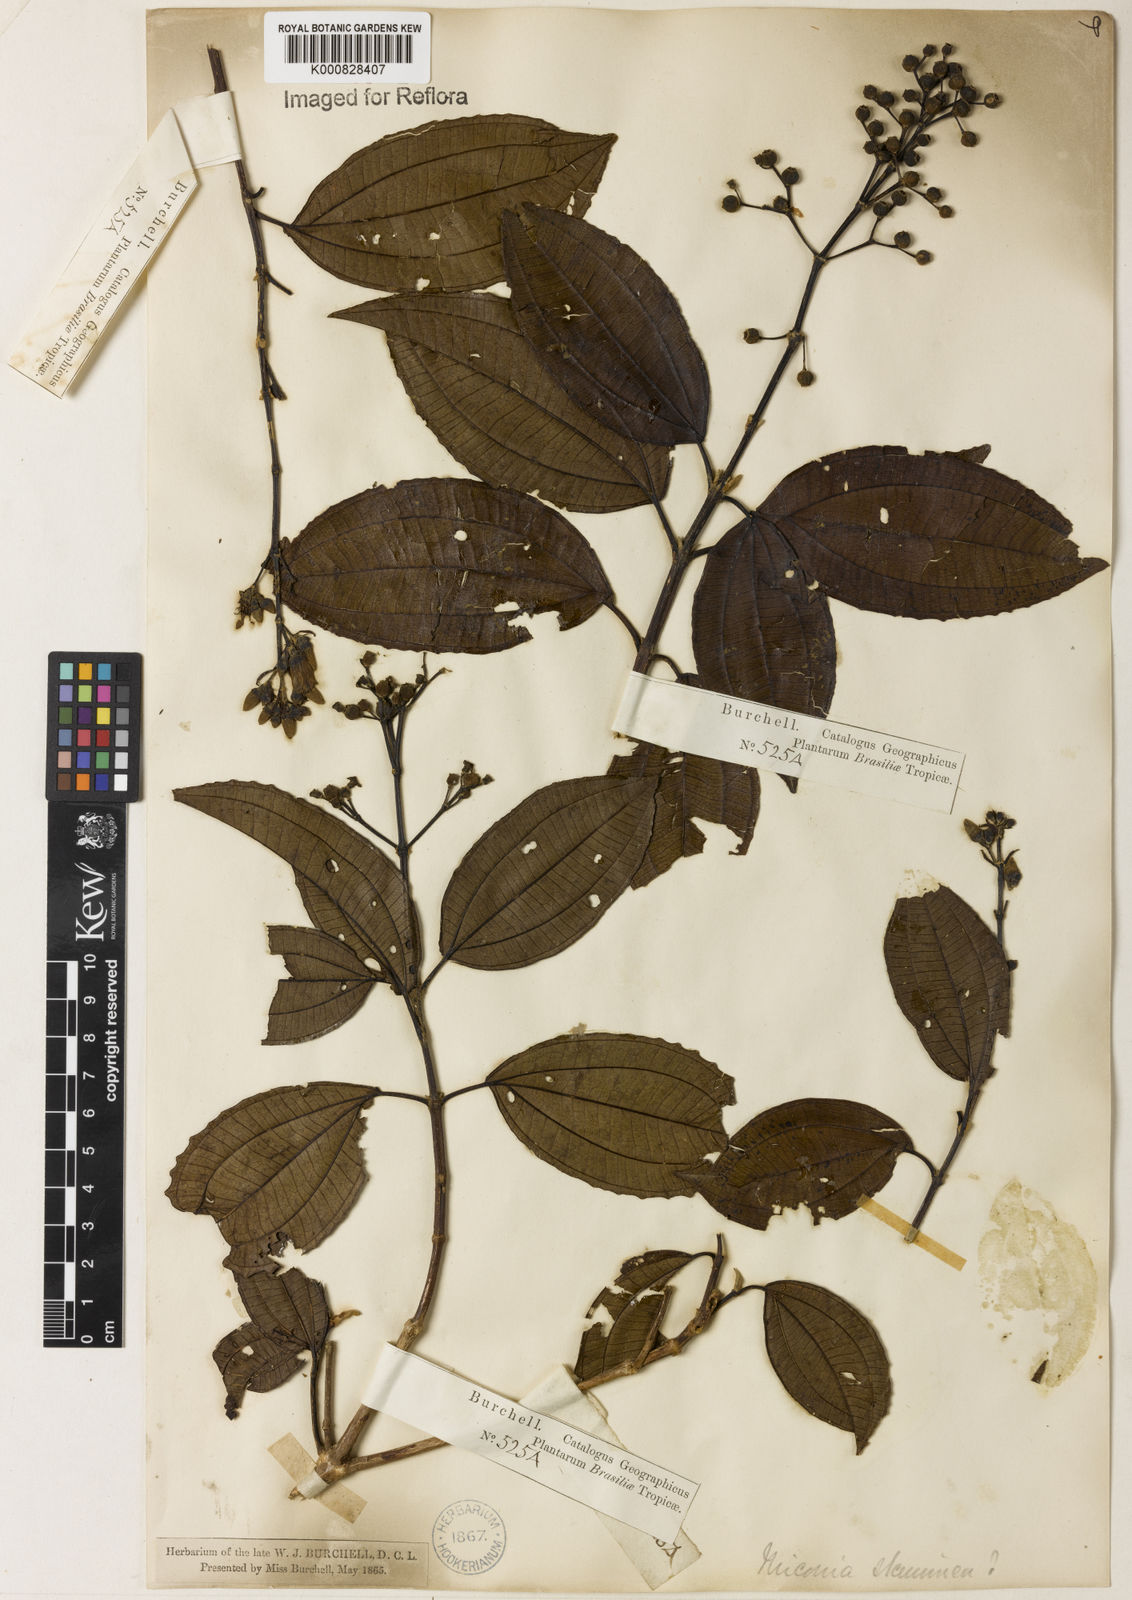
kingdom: Plantae
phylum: Tracheophyta
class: Magnoliopsida
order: Myrtales
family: Melastomataceae
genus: Miconia
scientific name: Miconia staminea
